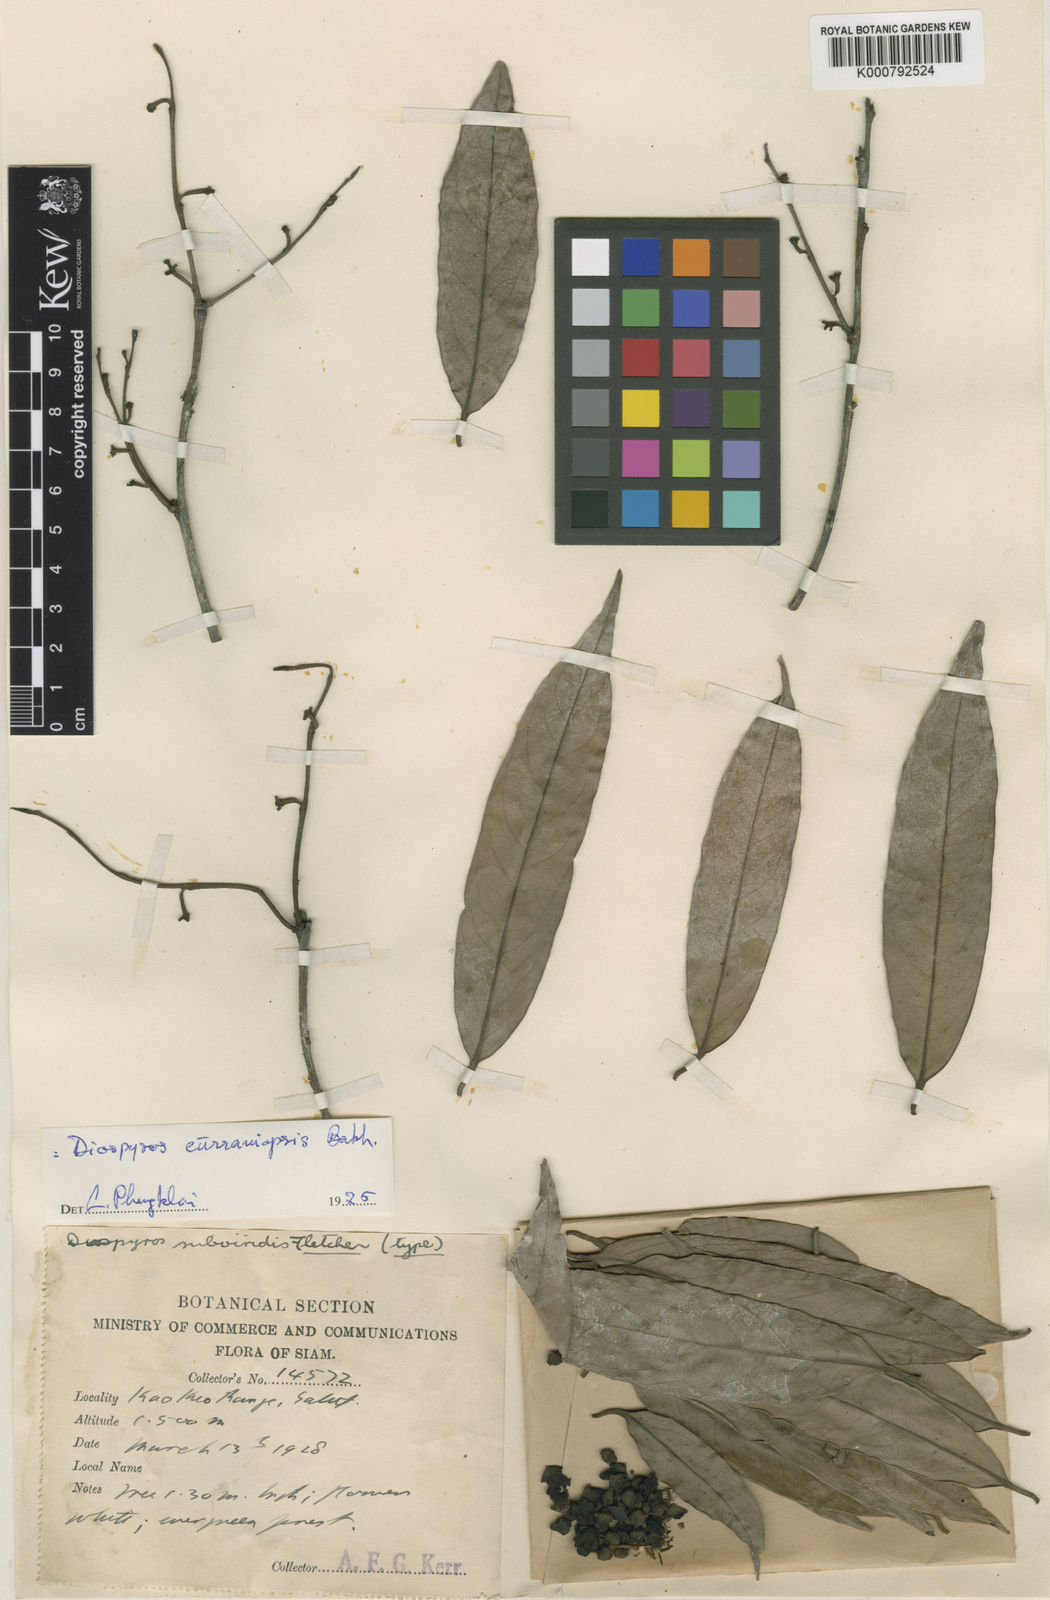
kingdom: Plantae
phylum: Tracheophyta
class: Magnoliopsida
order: Ericales
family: Ebenaceae
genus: Diospyros
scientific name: Diospyros curranii
